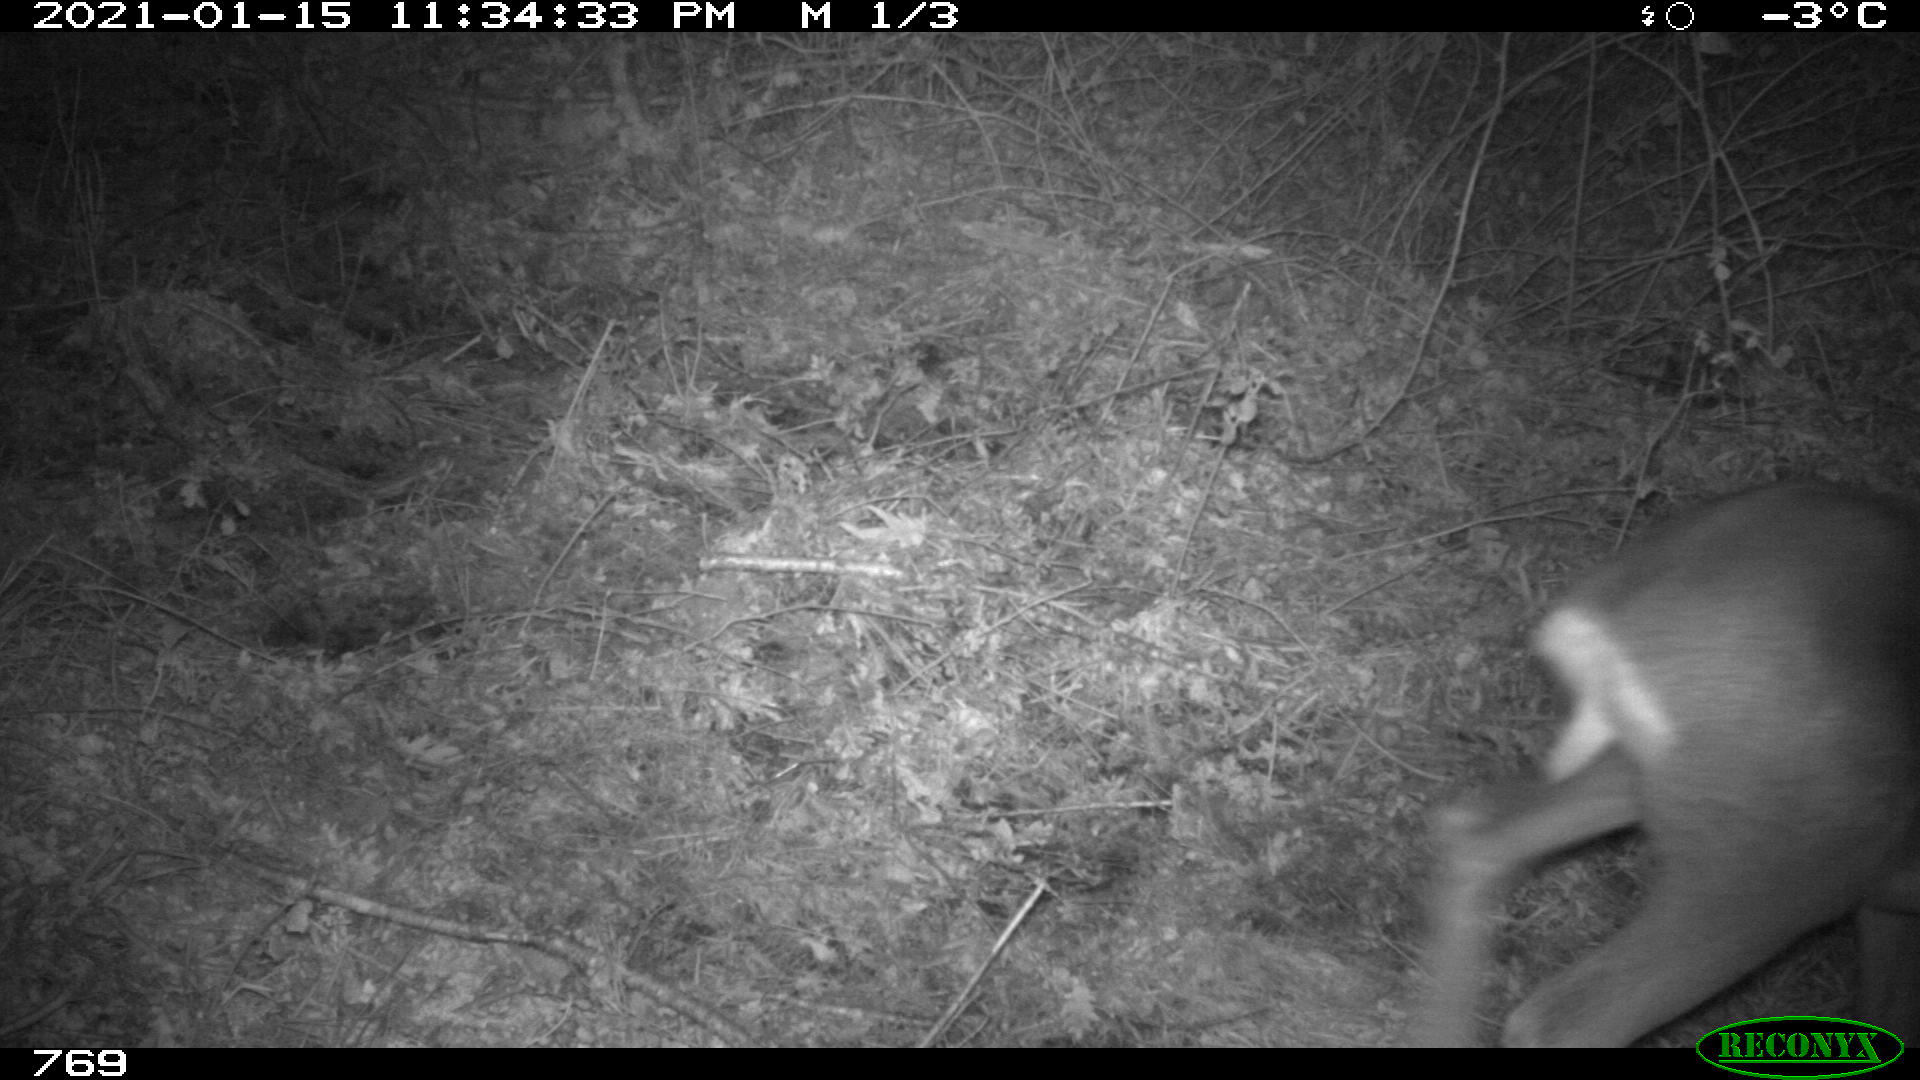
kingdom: Animalia
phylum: Chordata
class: Mammalia
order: Artiodactyla
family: Cervidae
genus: Capreolus
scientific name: Capreolus capreolus
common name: Western roe deer
